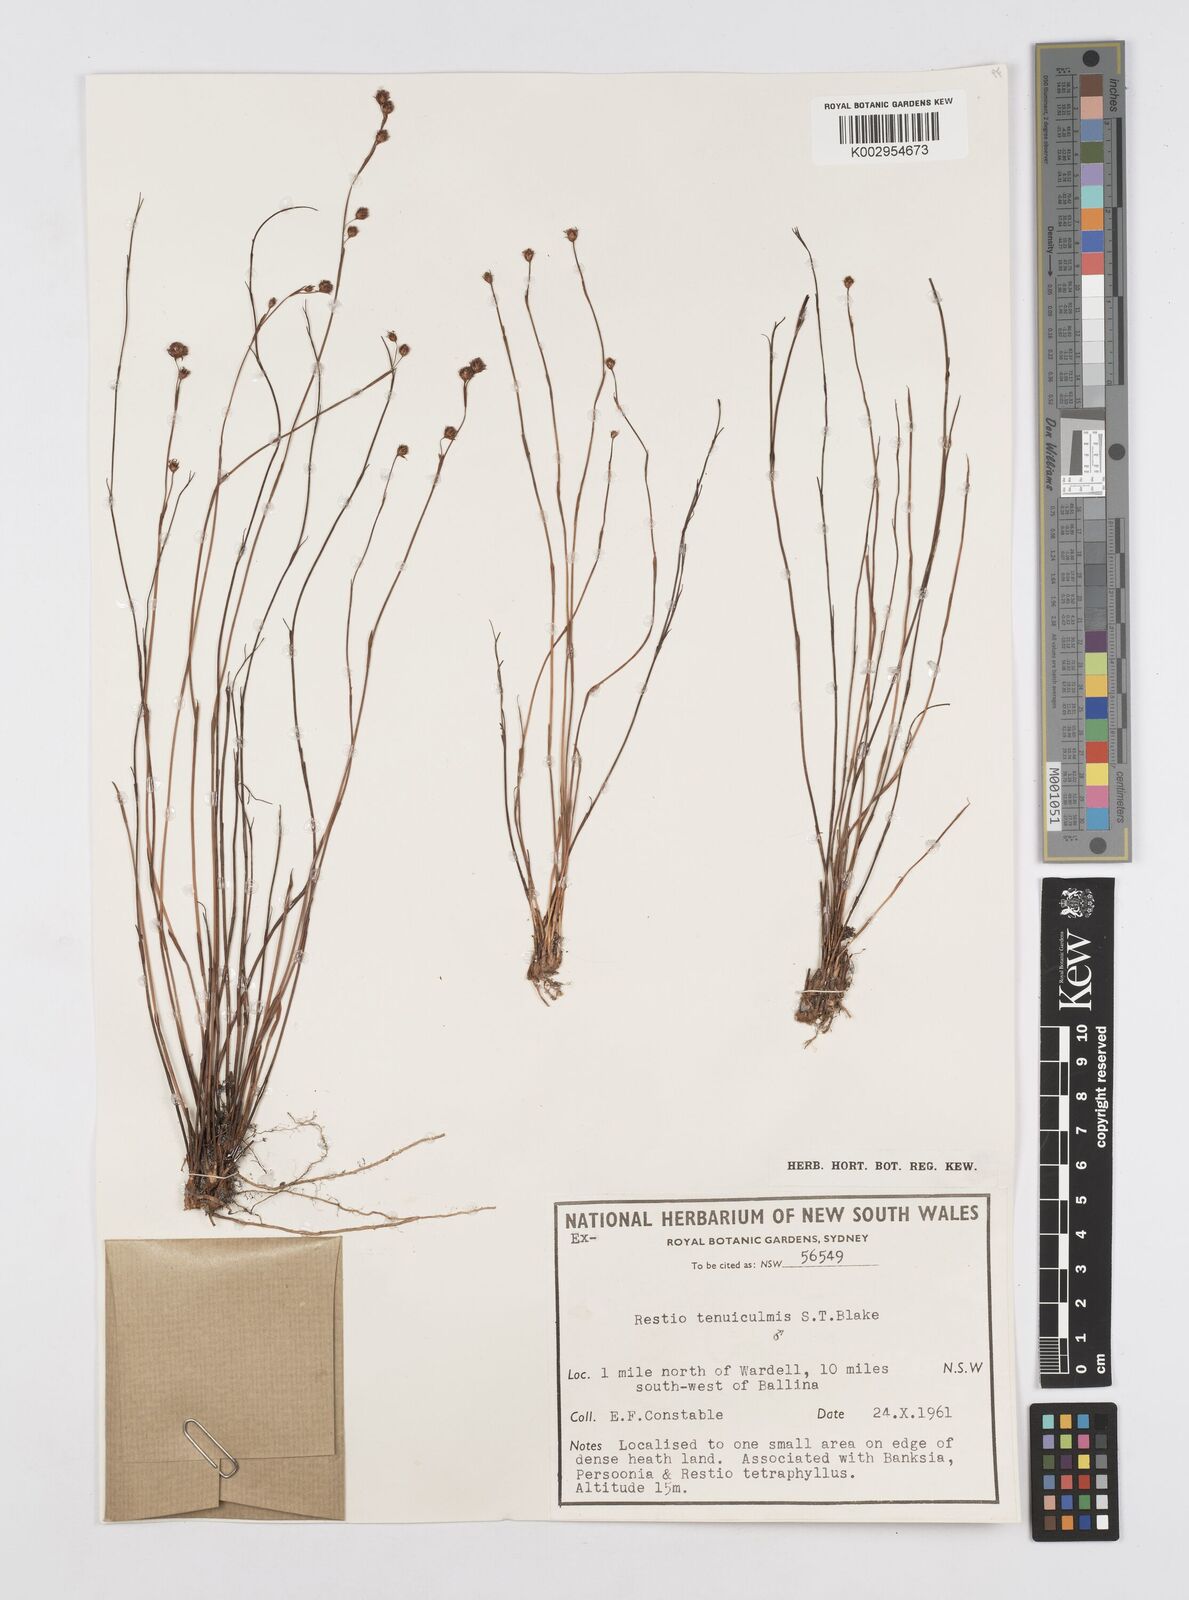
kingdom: Plantae
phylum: Tracheophyta
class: Liliopsida
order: Poales
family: Restionaceae
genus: Baloskion
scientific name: Baloskion tenuiculme
